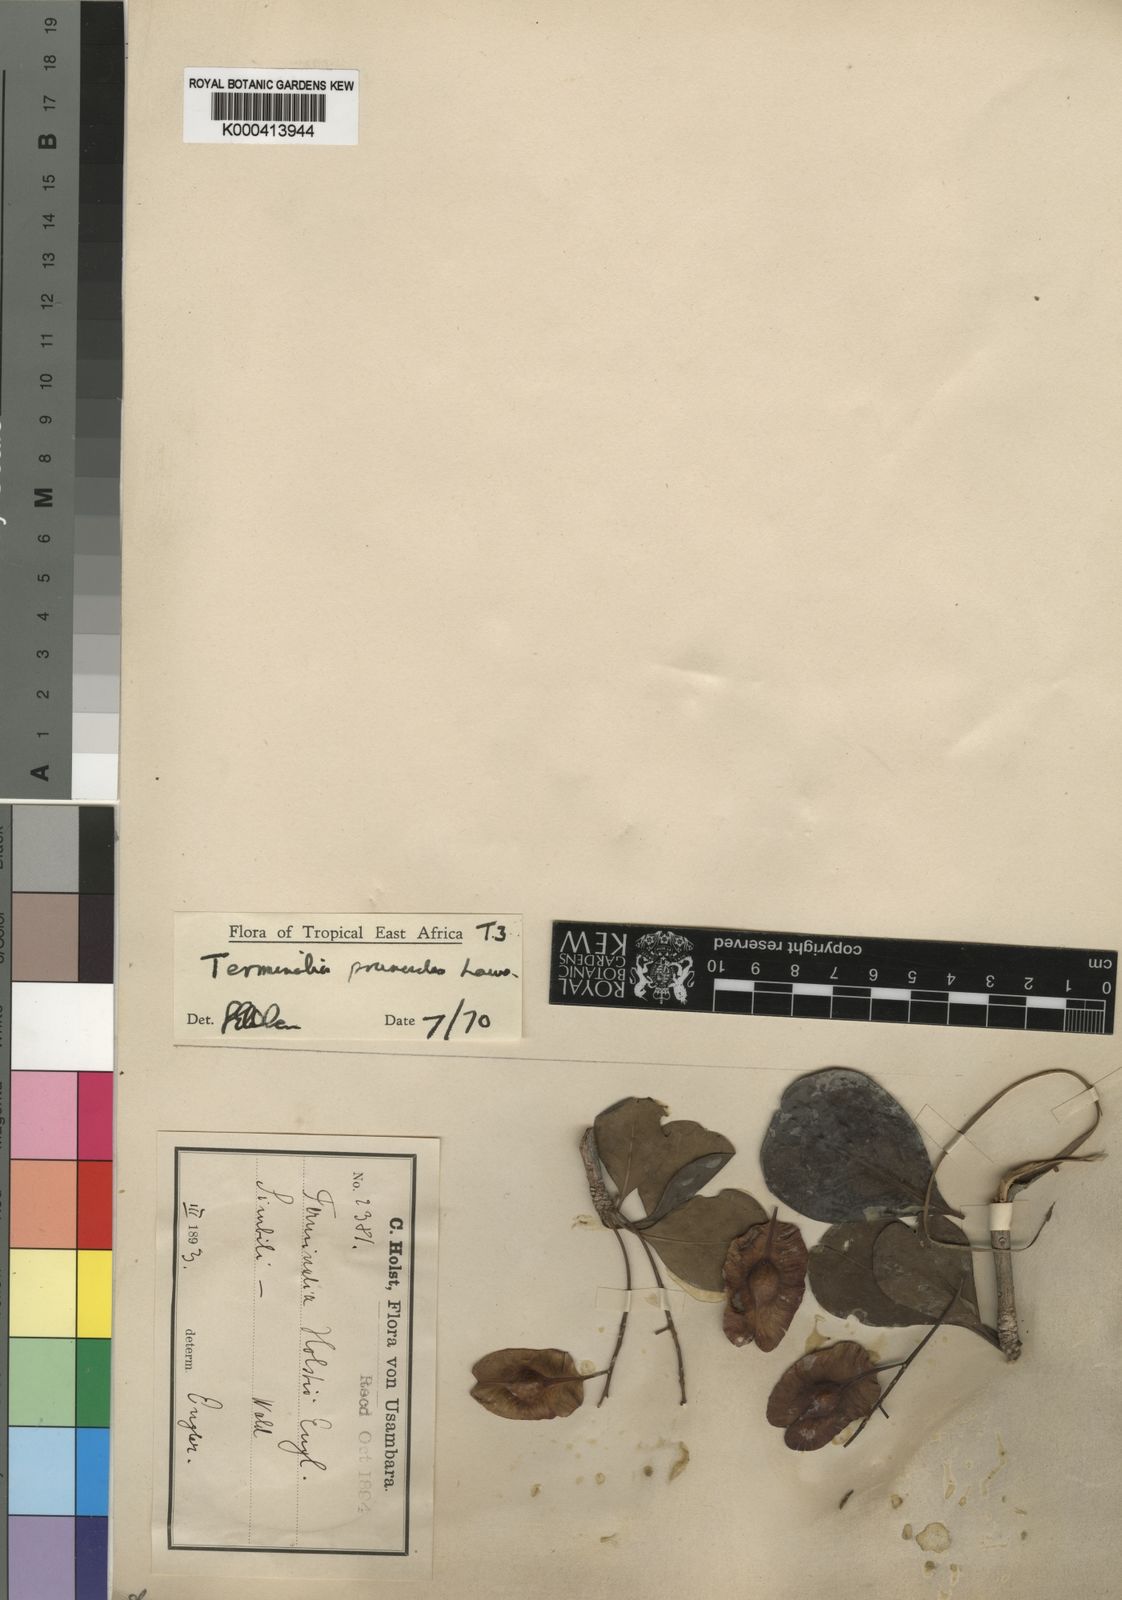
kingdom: Plantae
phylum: Tracheophyta
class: Magnoliopsida
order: Myrtales
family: Combretaceae
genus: Terminalia
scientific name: Terminalia prunioides
